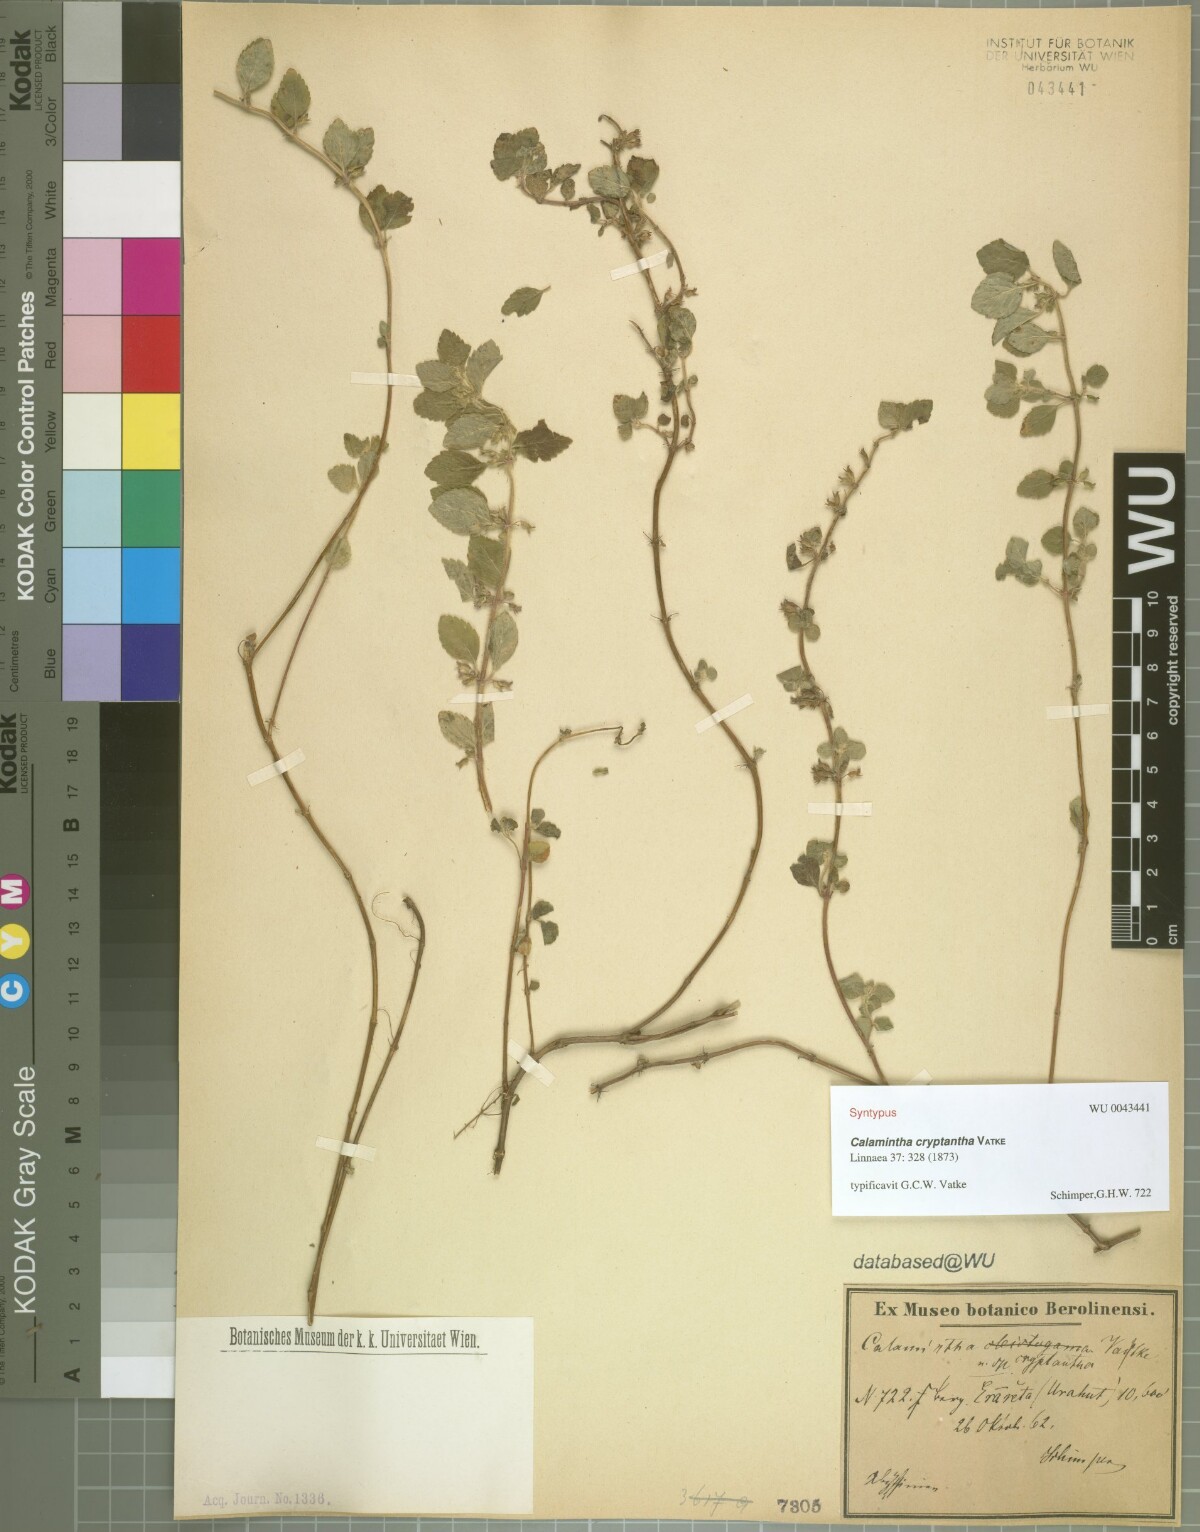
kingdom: Plantae
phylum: Tracheophyta
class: Magnoliopsida
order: Lamiales
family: Lamiaceae
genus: Clinopodium
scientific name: Clinopodium simense
